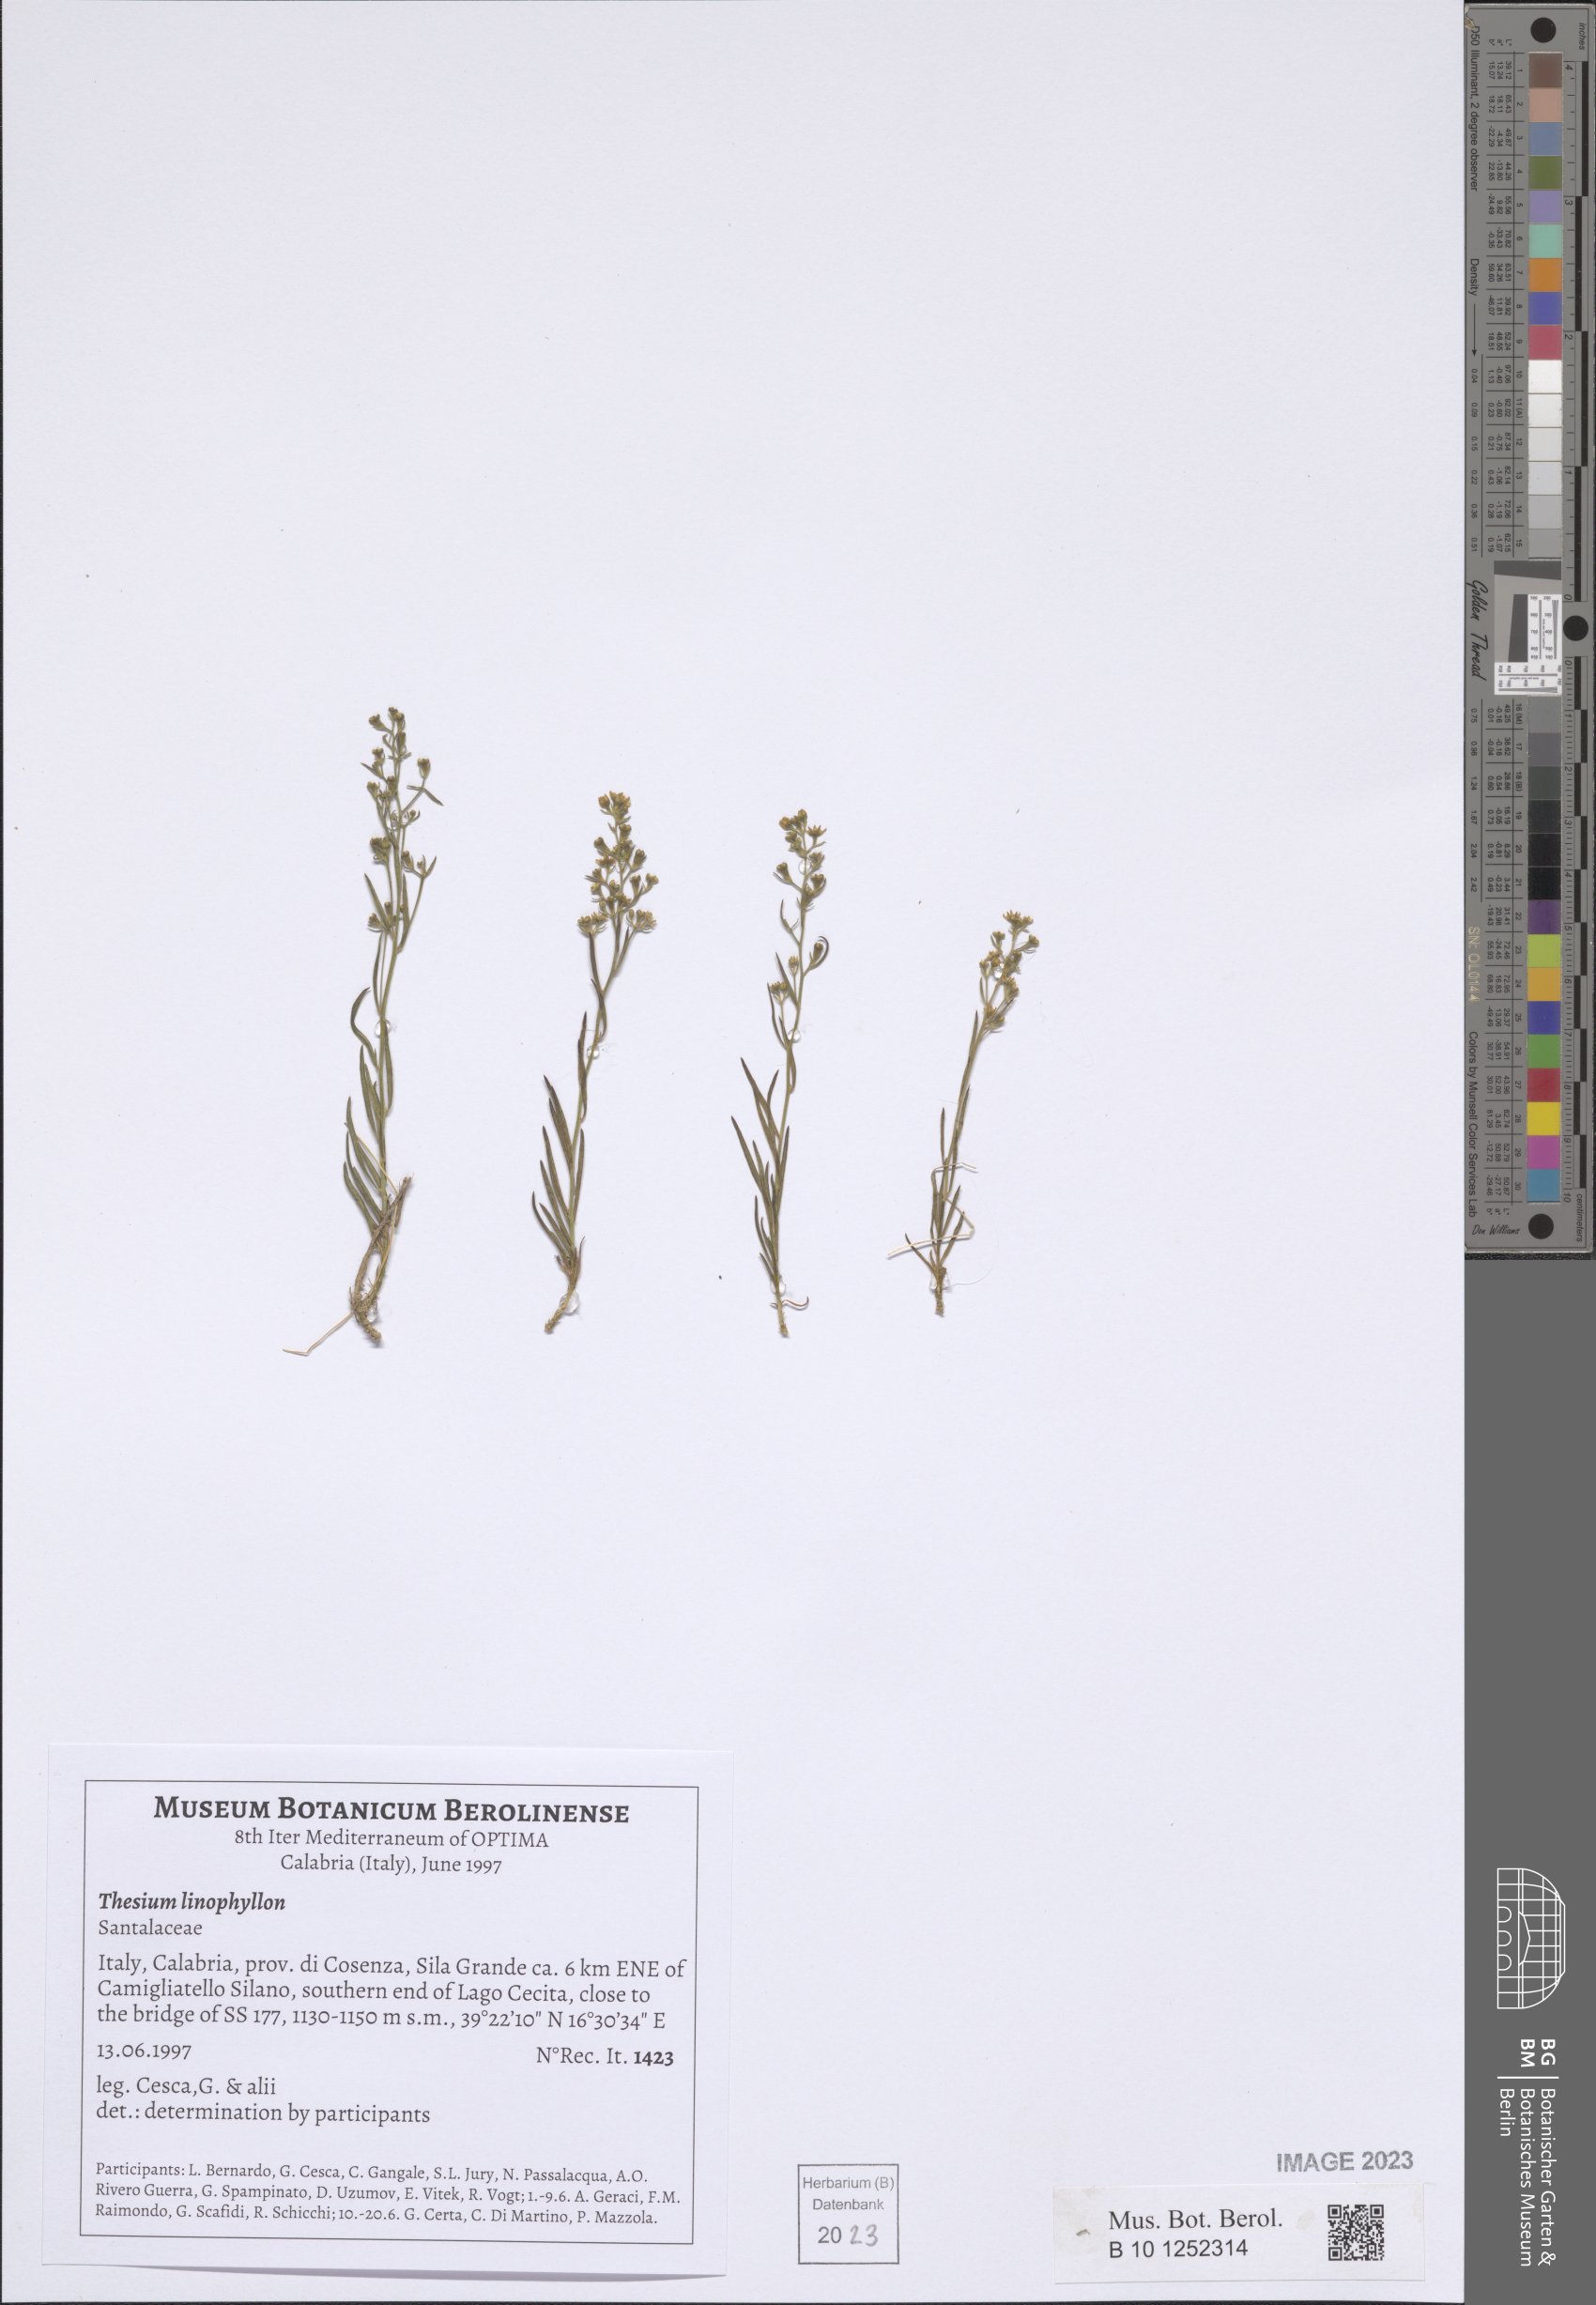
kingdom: Plantae
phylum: Tracheophyta
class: Magnoliopsida
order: Santalales
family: Thesiaceae
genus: Thesium
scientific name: Thesium linophyllon
